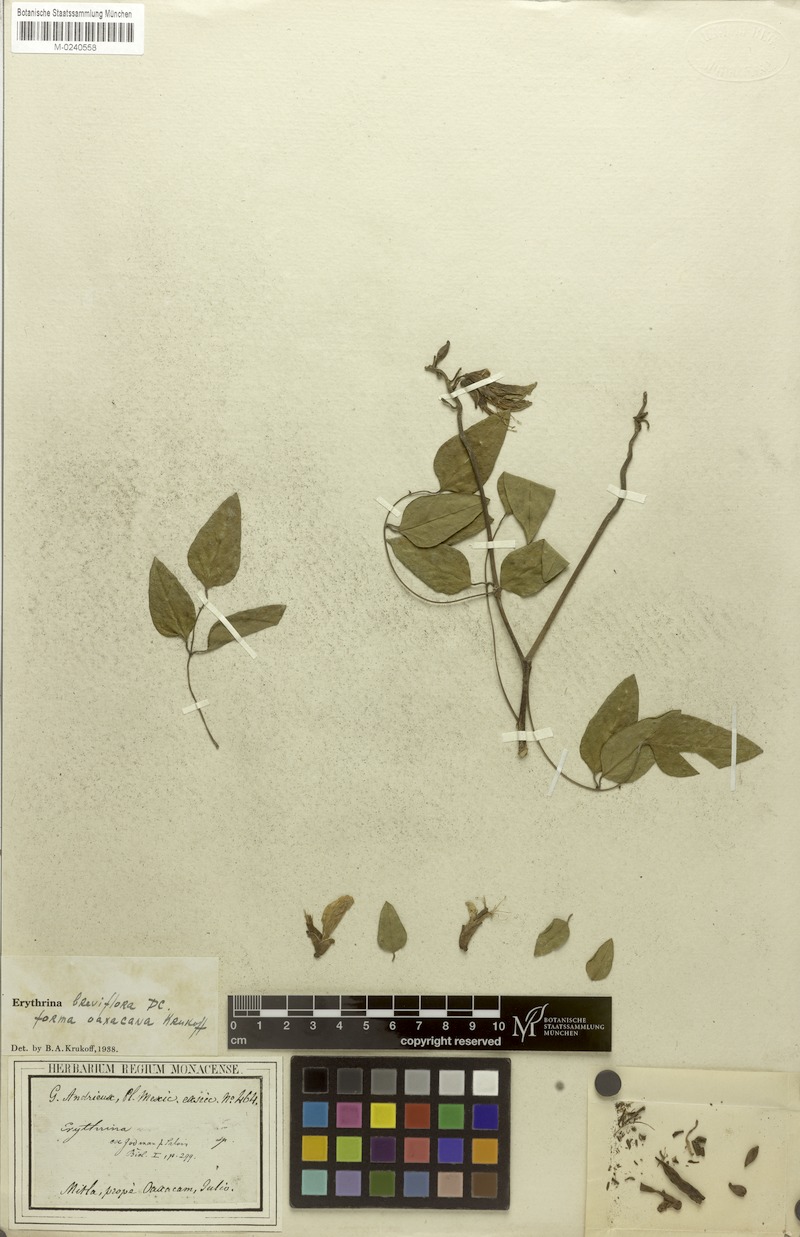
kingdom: Plantae
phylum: Tracheophyta
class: Magnoliopsida
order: Fabales
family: Fabaceae
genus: Erythrina
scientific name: Erythrina breviflora
